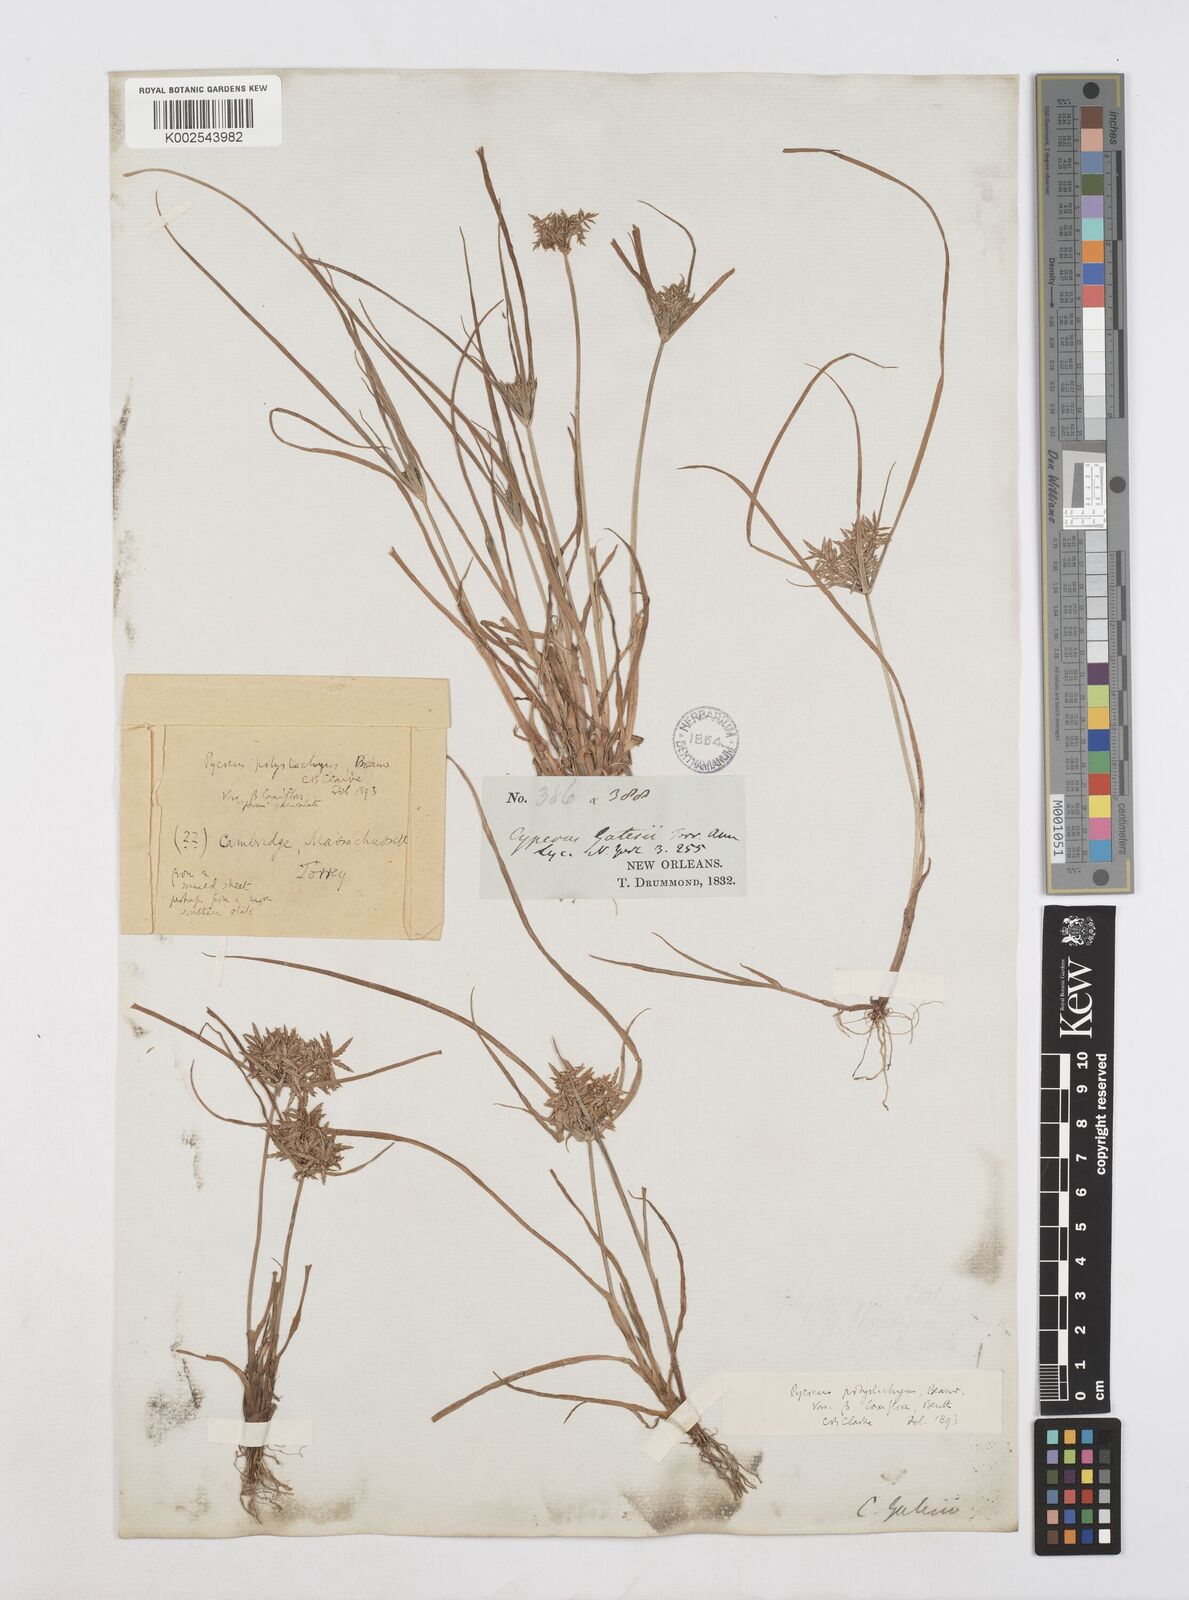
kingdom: Plantae
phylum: Tracheophyta
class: Liliopsida
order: Poales
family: Cyperaceae
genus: Cyperus
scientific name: Cyperus polystachyos
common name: Bunchy flat sedge
